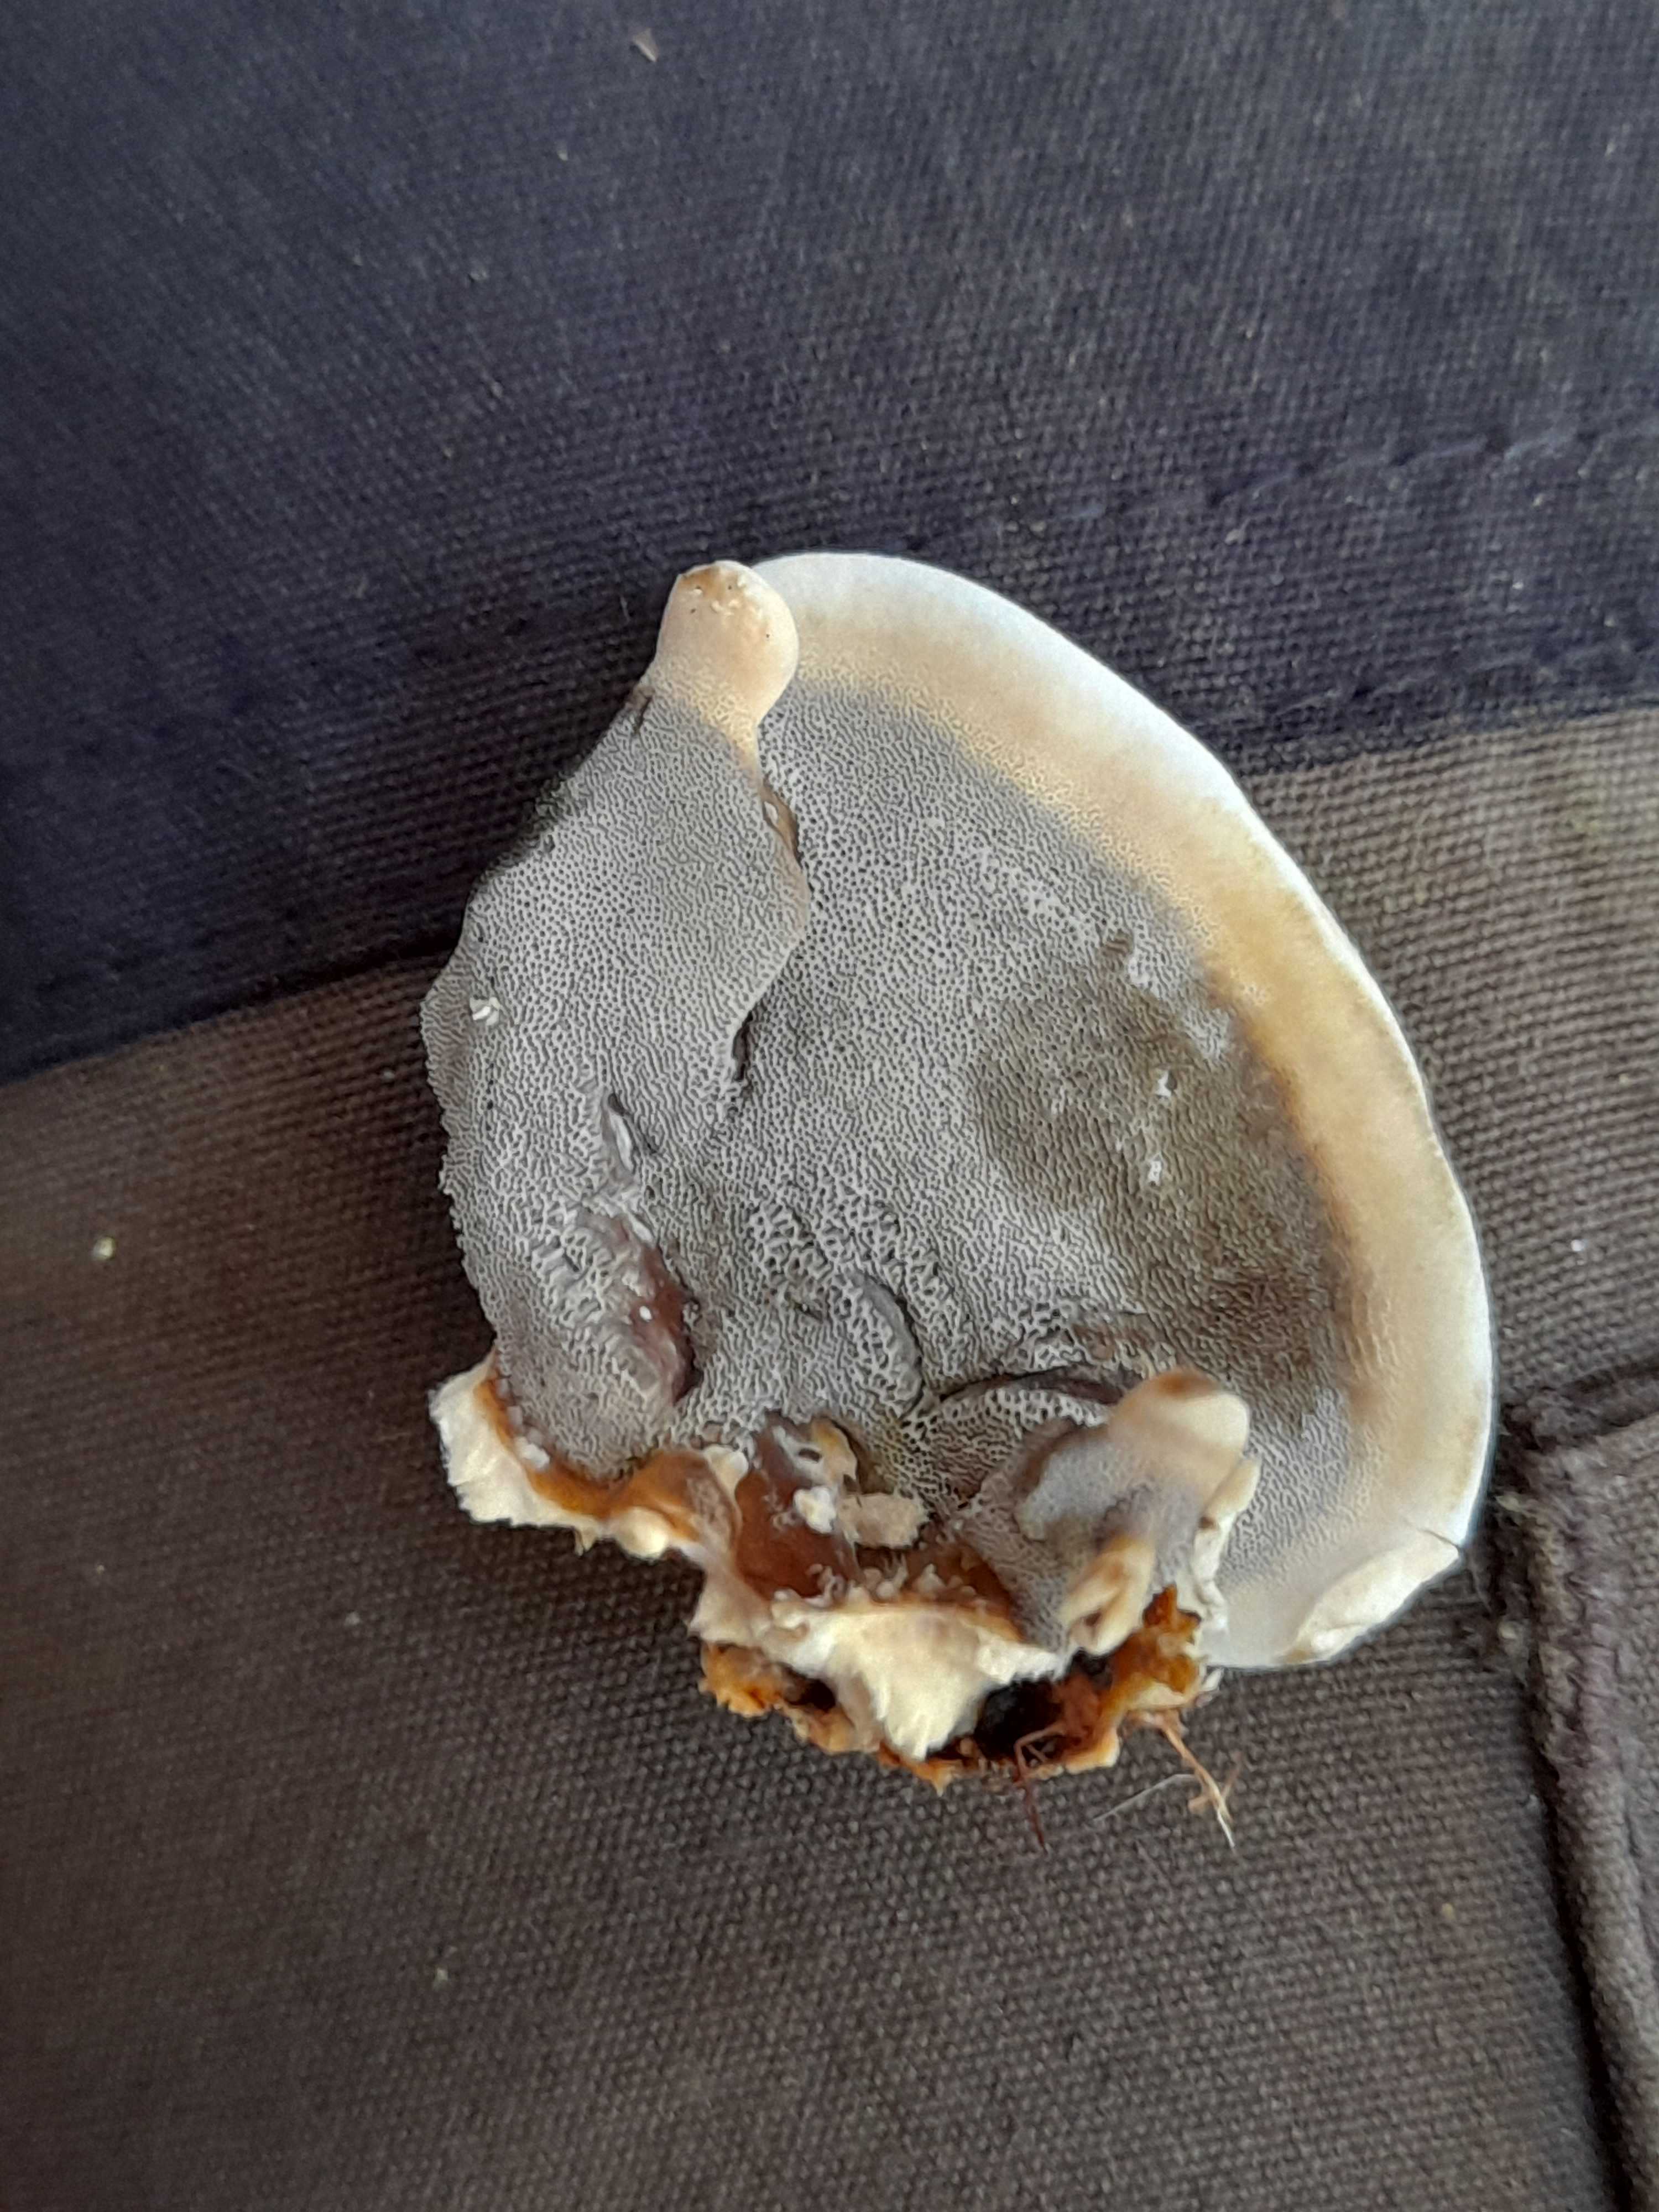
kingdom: Fungi
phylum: Basidiomycota
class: Agaricomycetes
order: Polyporales
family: Phanerochaetaceae
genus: Bjerkandera
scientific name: Bjerkandera adusta
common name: sveden sodporesvamp
